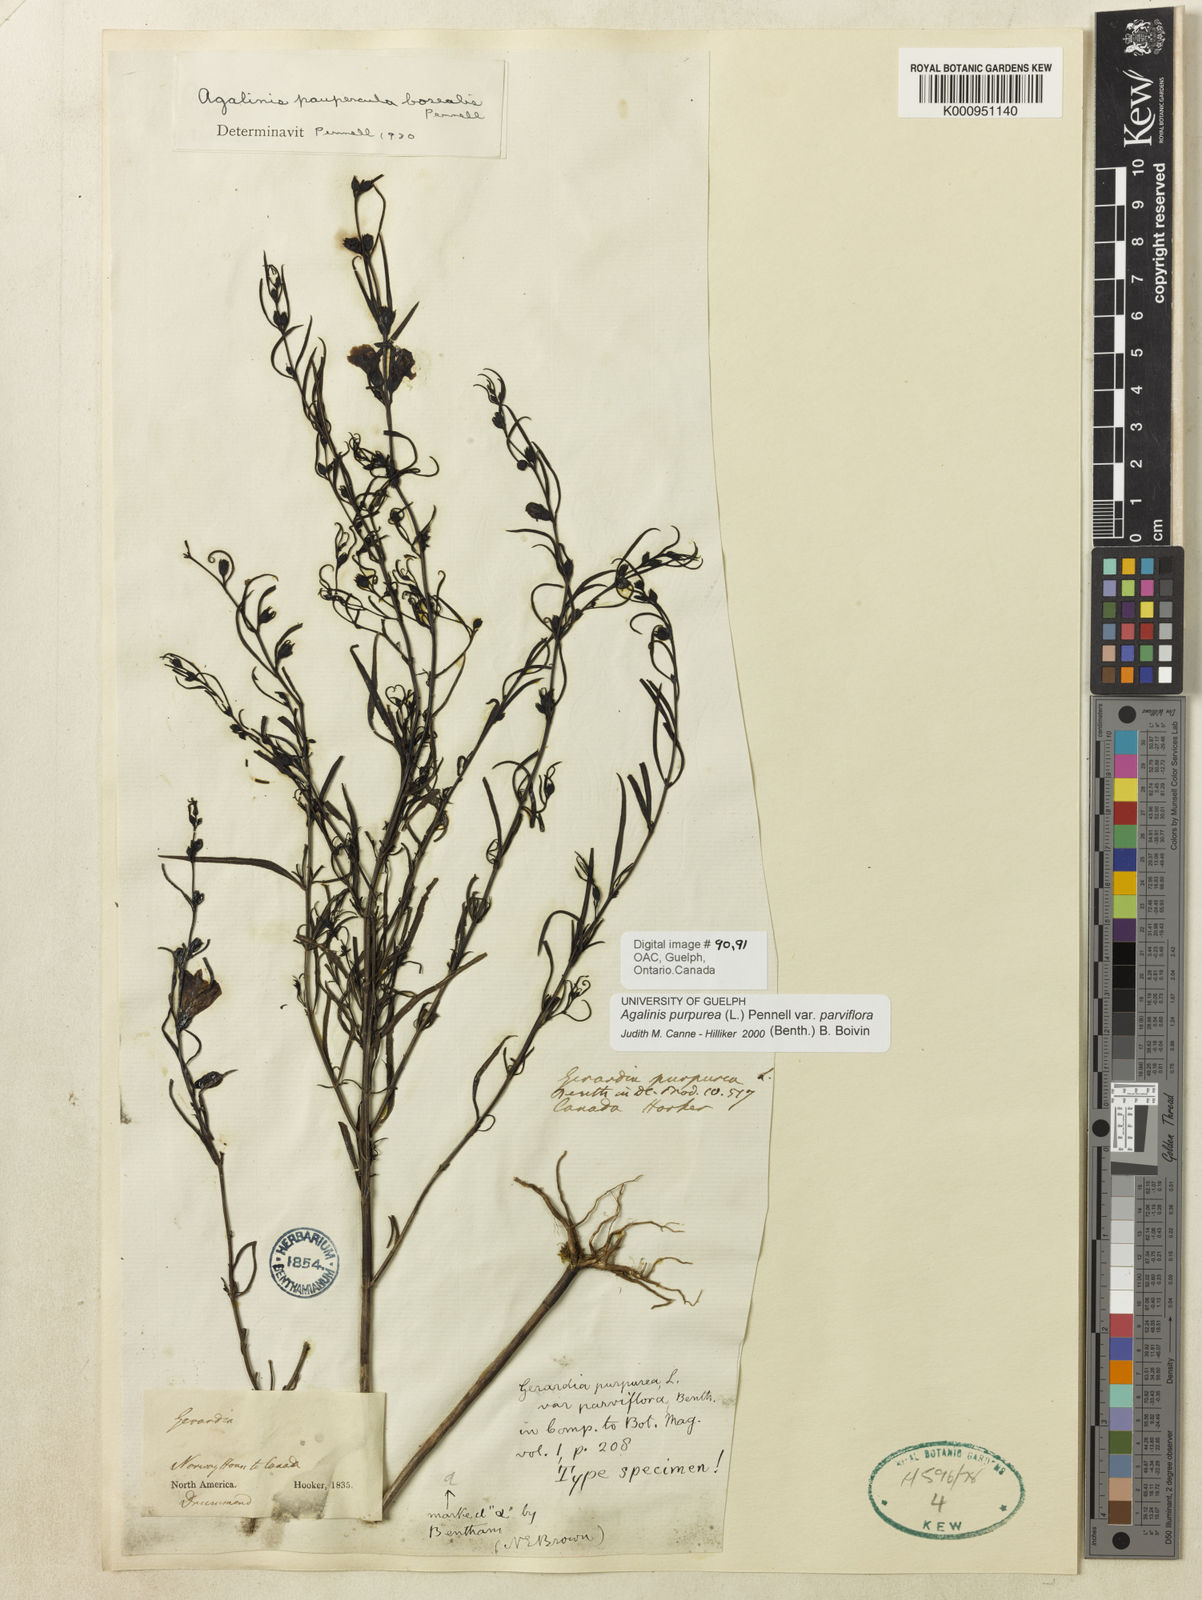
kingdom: Plantae
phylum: Tracheophyta
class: Magnoliopsida
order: Lamiales
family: Orobanchaceae
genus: Agalinis
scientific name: Agalinis purpurea
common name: Purple false foxglove
